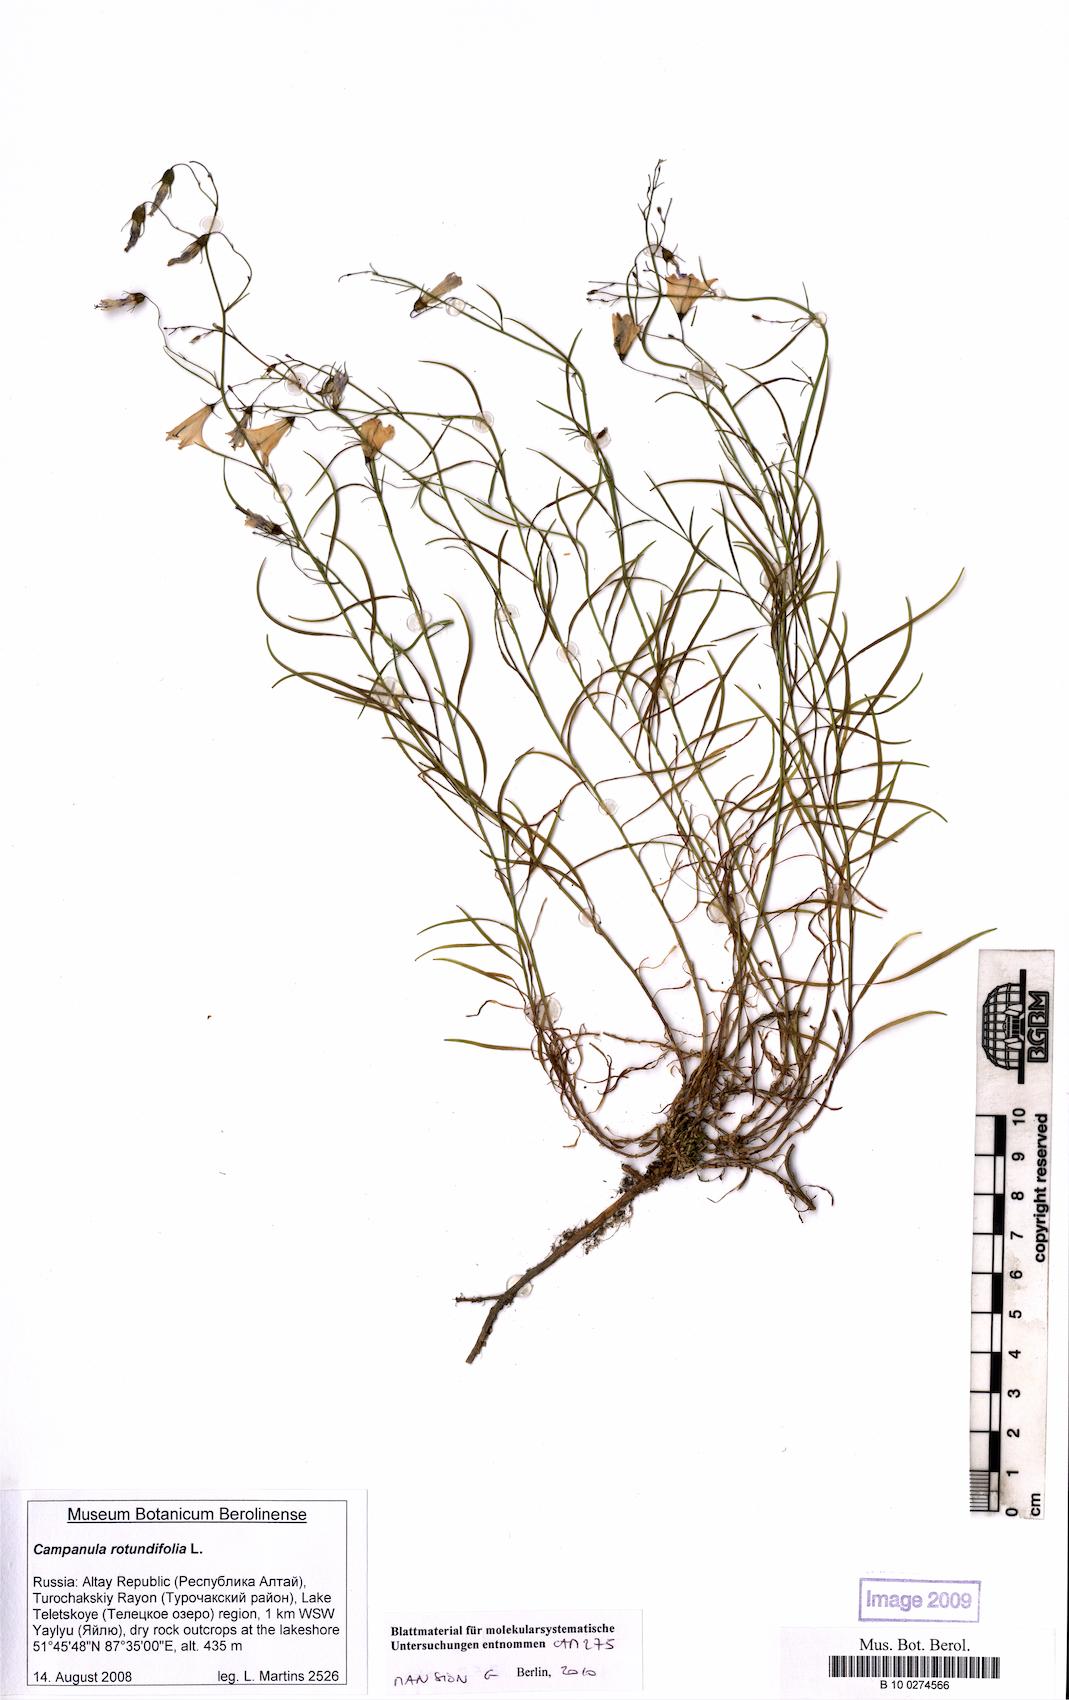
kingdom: Plantae
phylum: Tracheophyta
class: Magnoliopsida
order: Asterales
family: Campanulaceae
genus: Campanula
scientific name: Campanula rotundifolia
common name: Harebell
